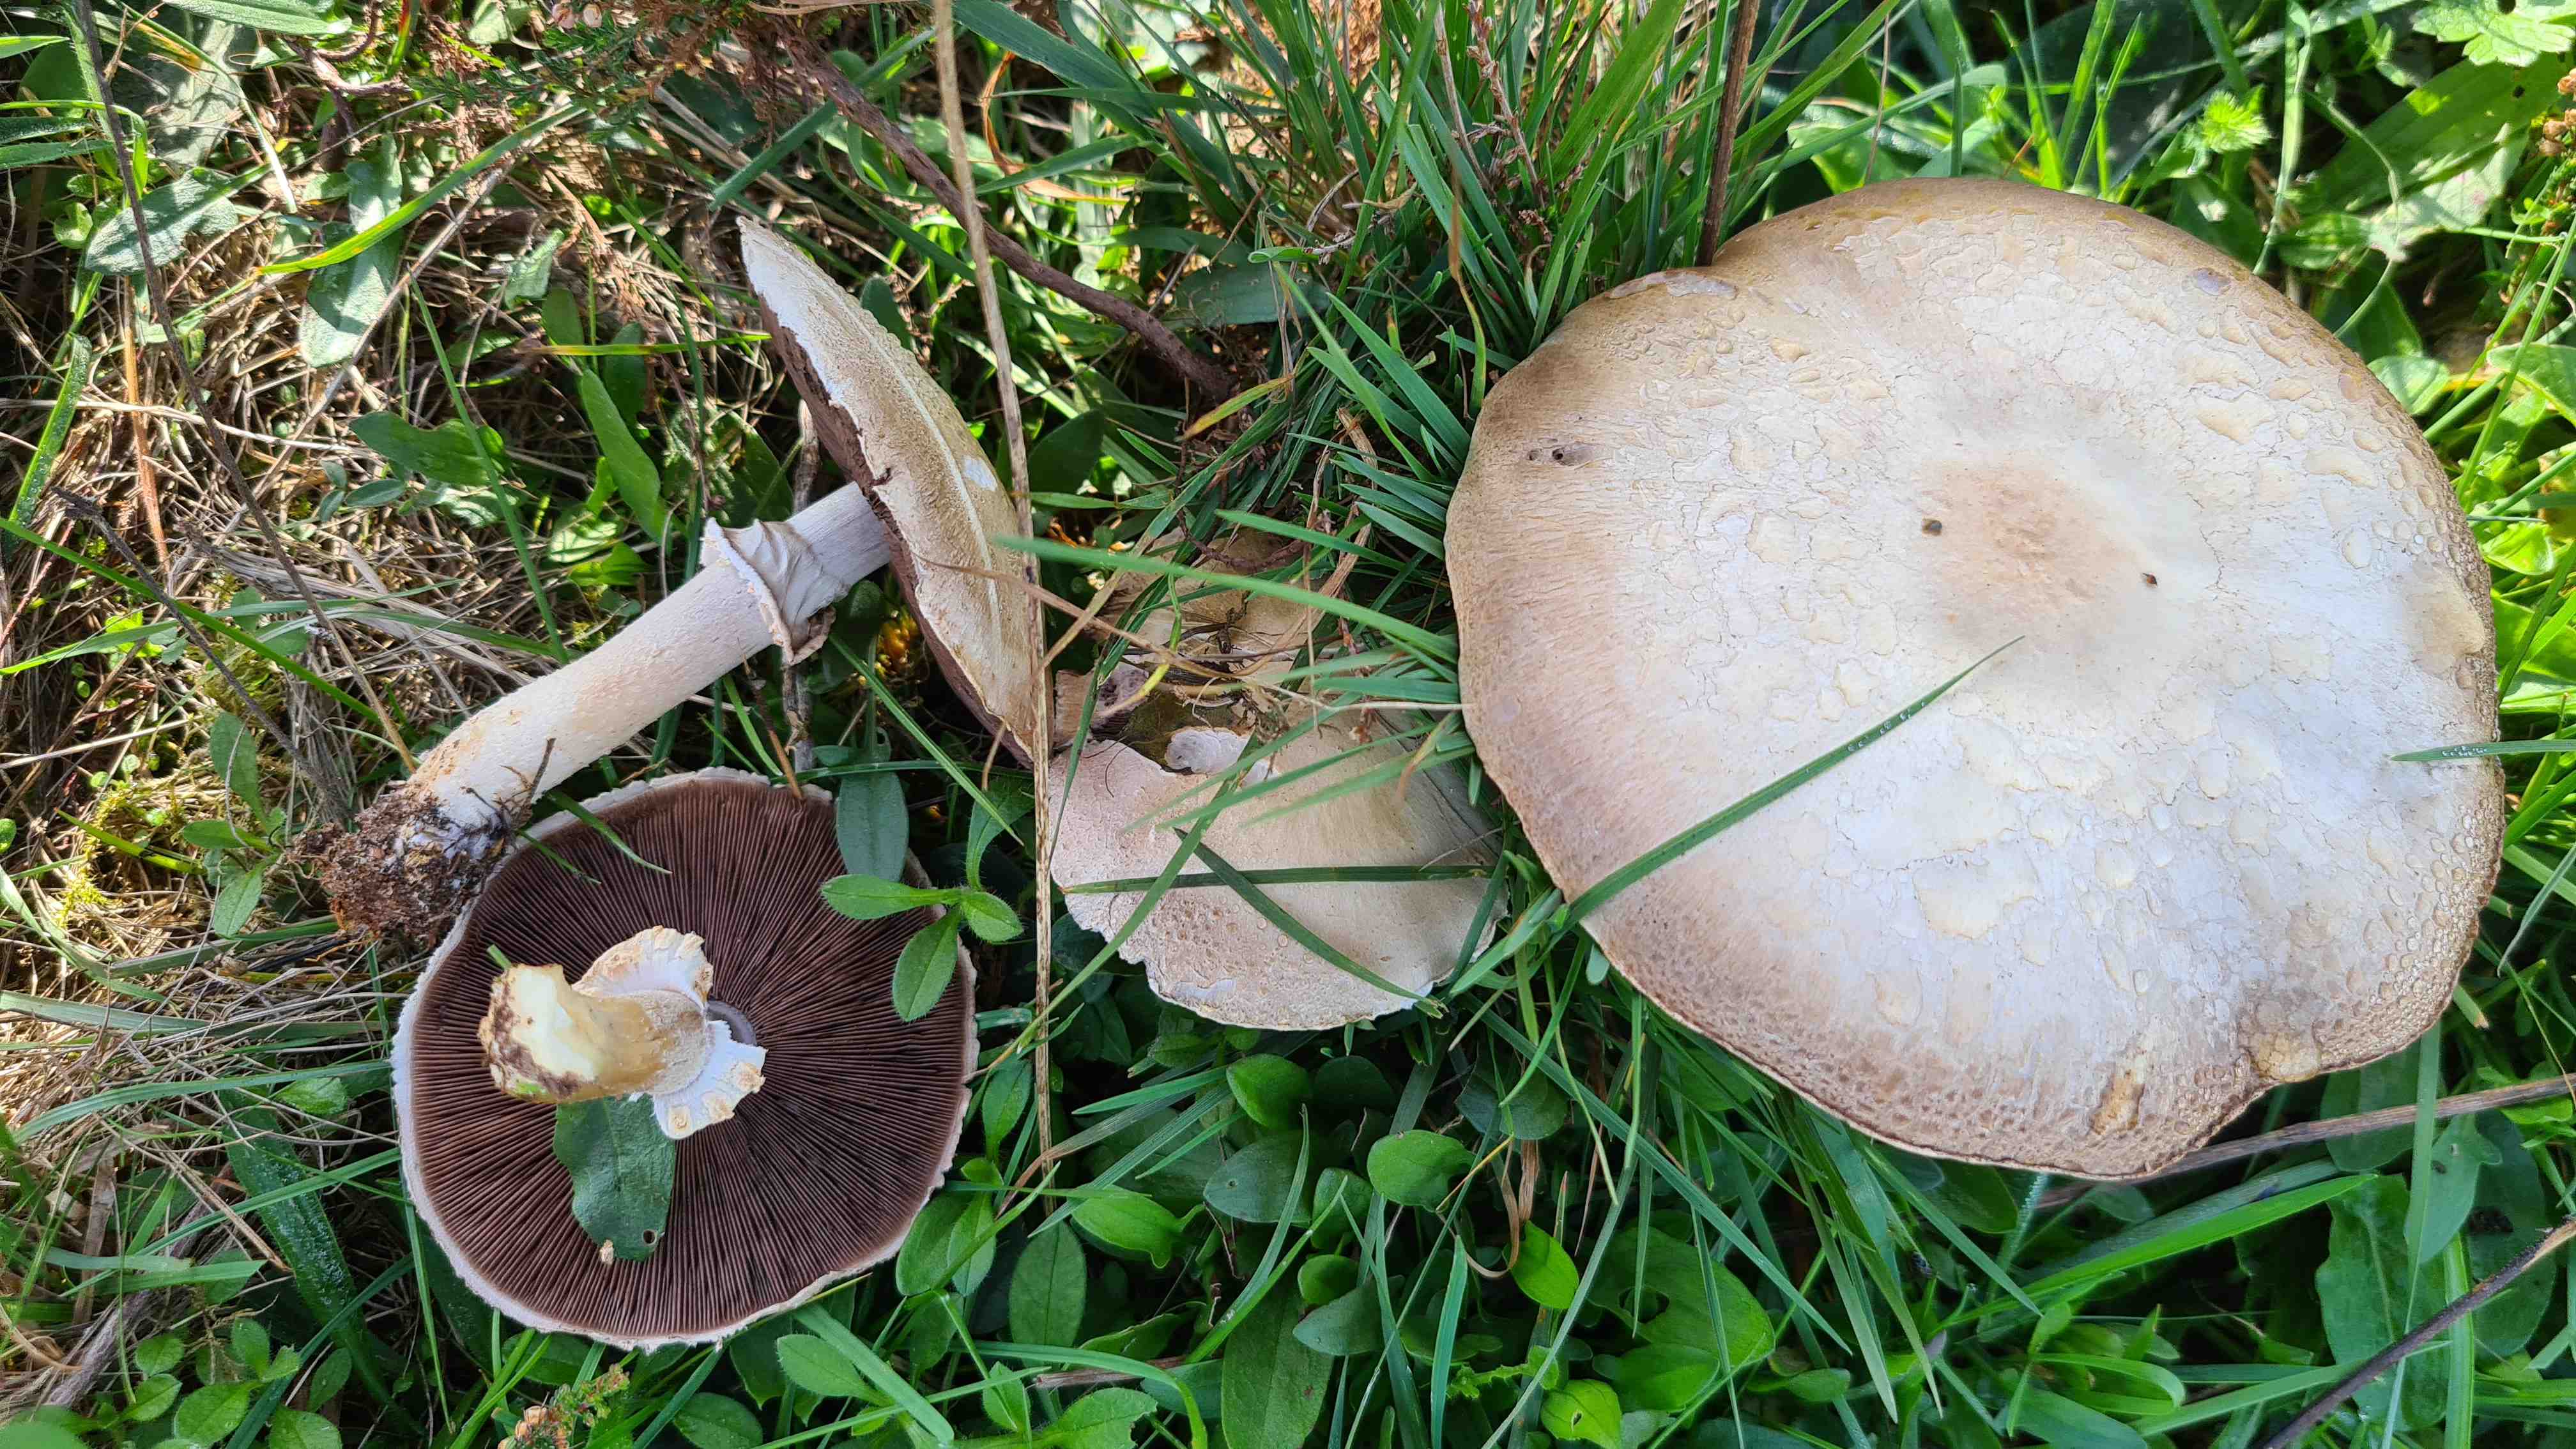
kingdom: Fungi
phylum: Basidiomycota
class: Agaricomycetes
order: Agaricales
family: Agaricaceae
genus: Agaricus
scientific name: Agaricus
